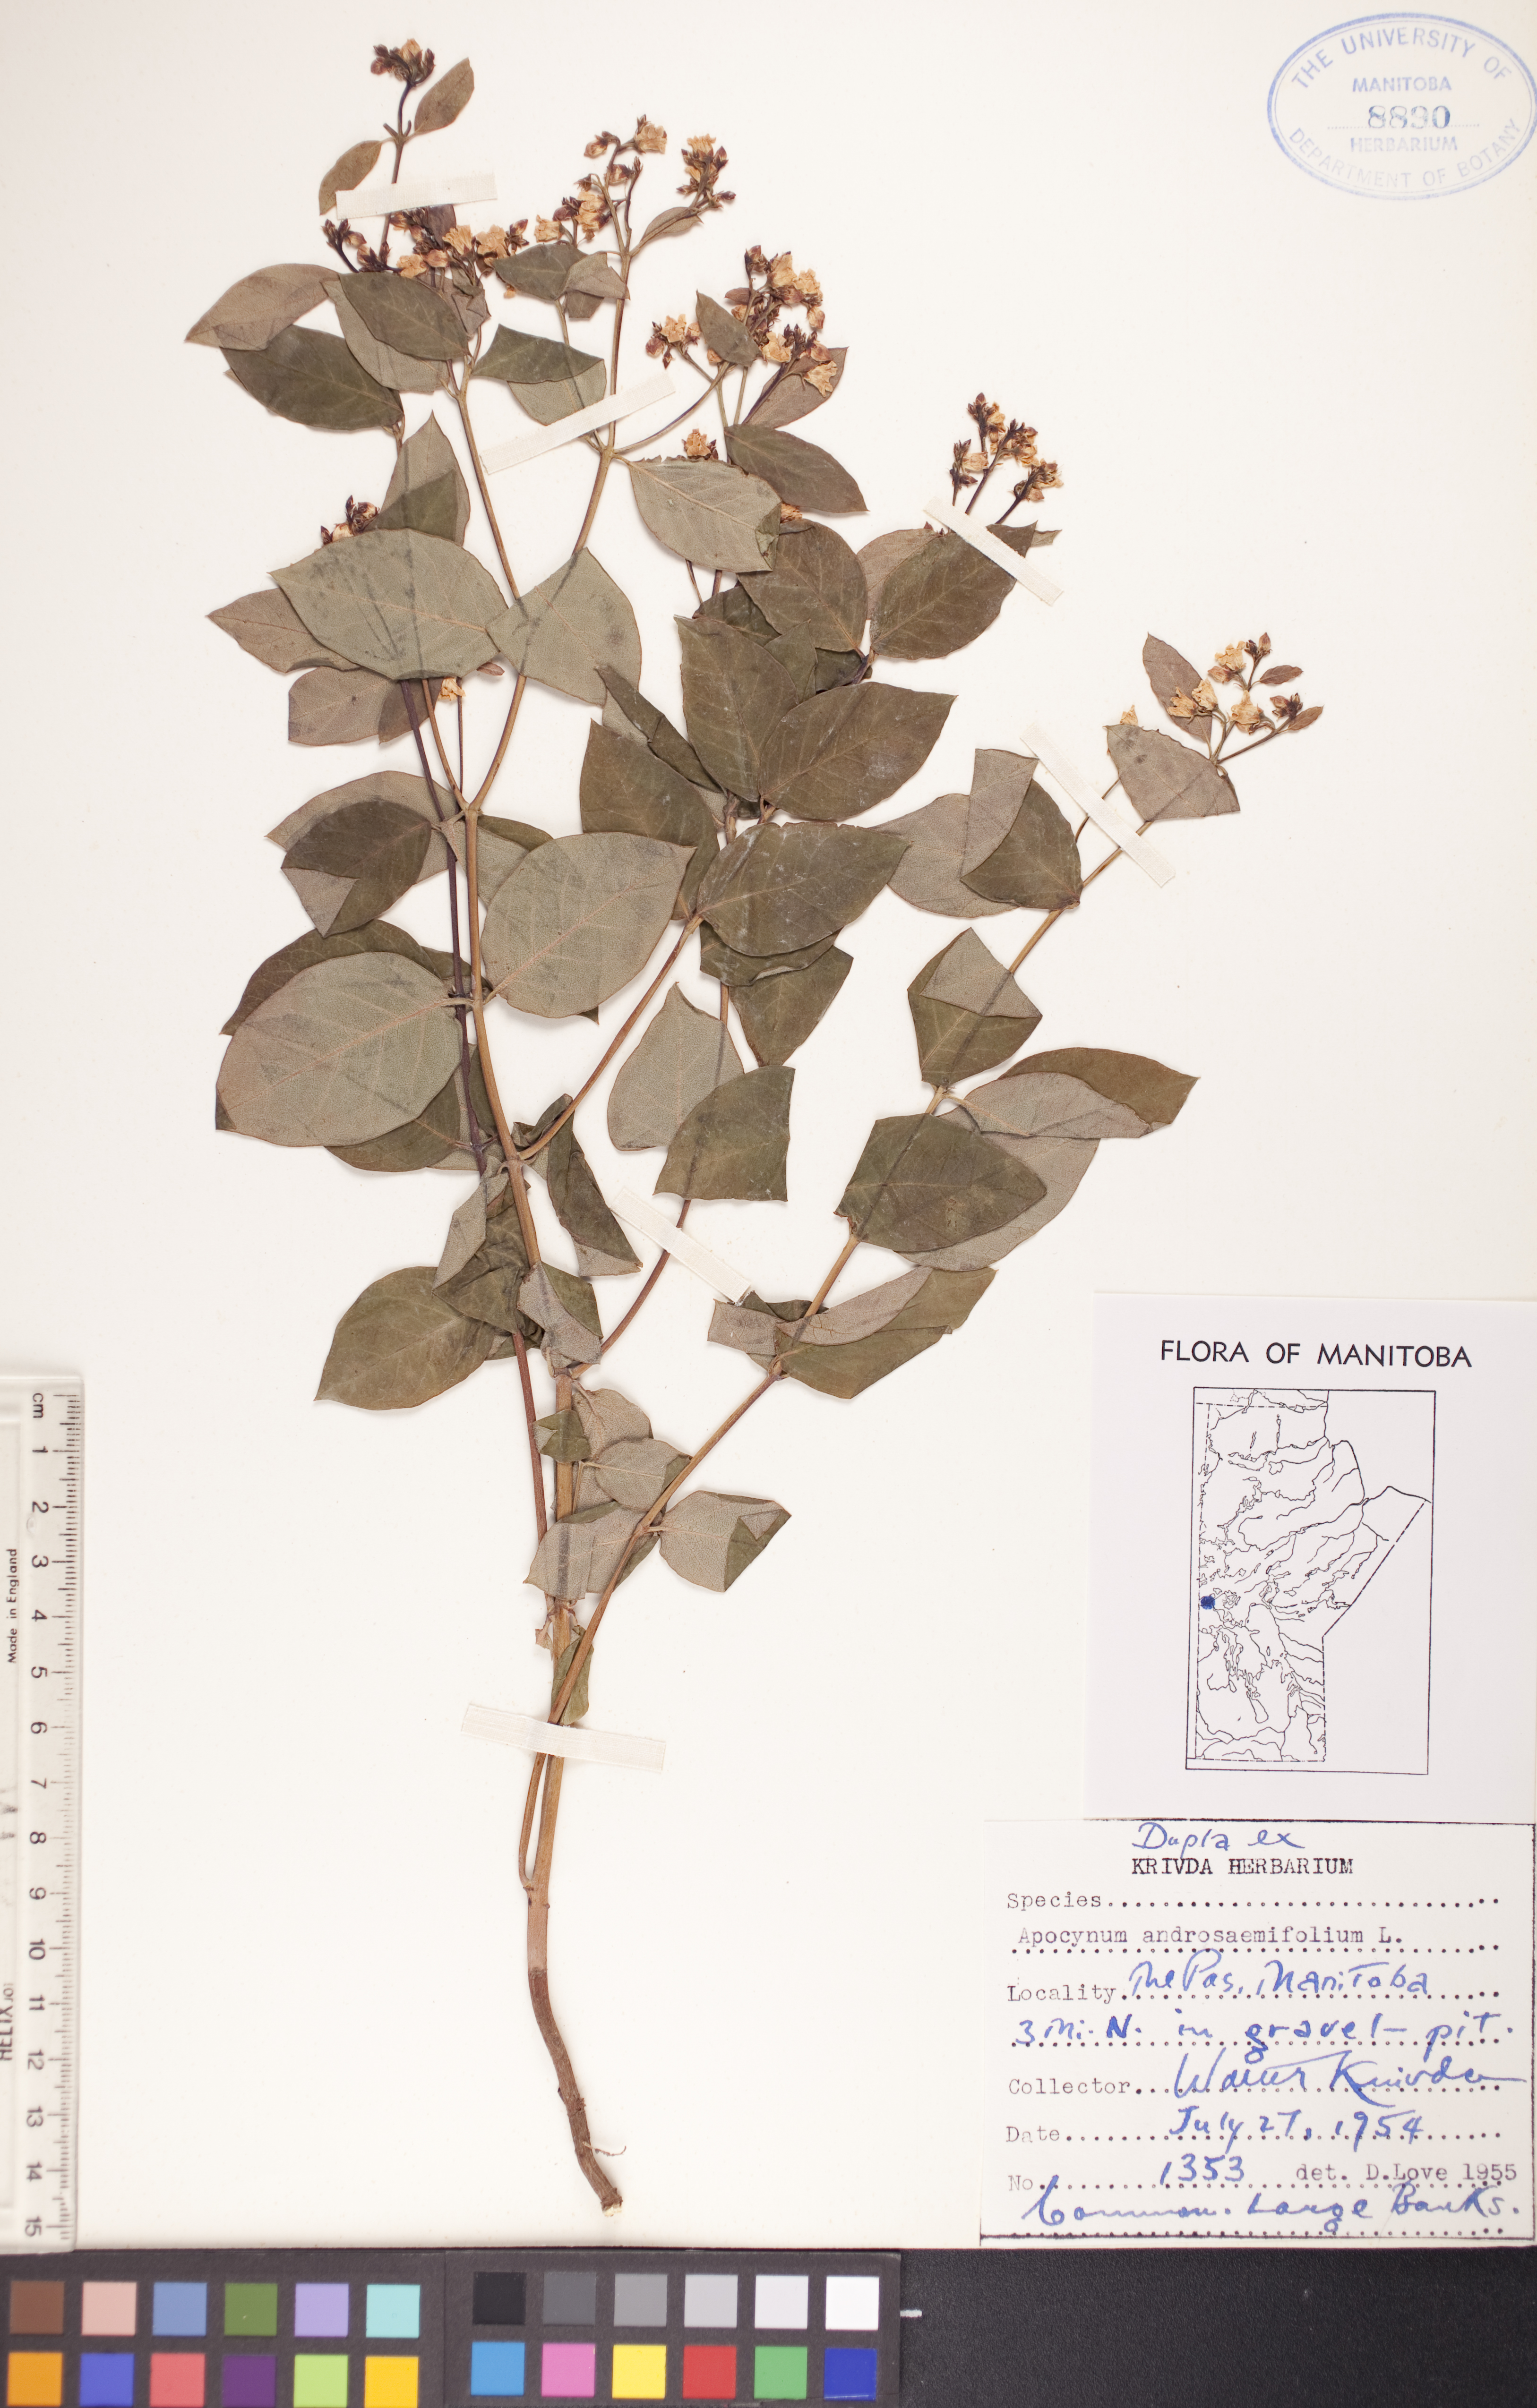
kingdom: Plantae
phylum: Tracheophyta
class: Magnoliopsida
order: Gentianales
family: Apocynaceae
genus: Apocynum
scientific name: Apocynum androsaemifolium
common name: Spreading dogbane
